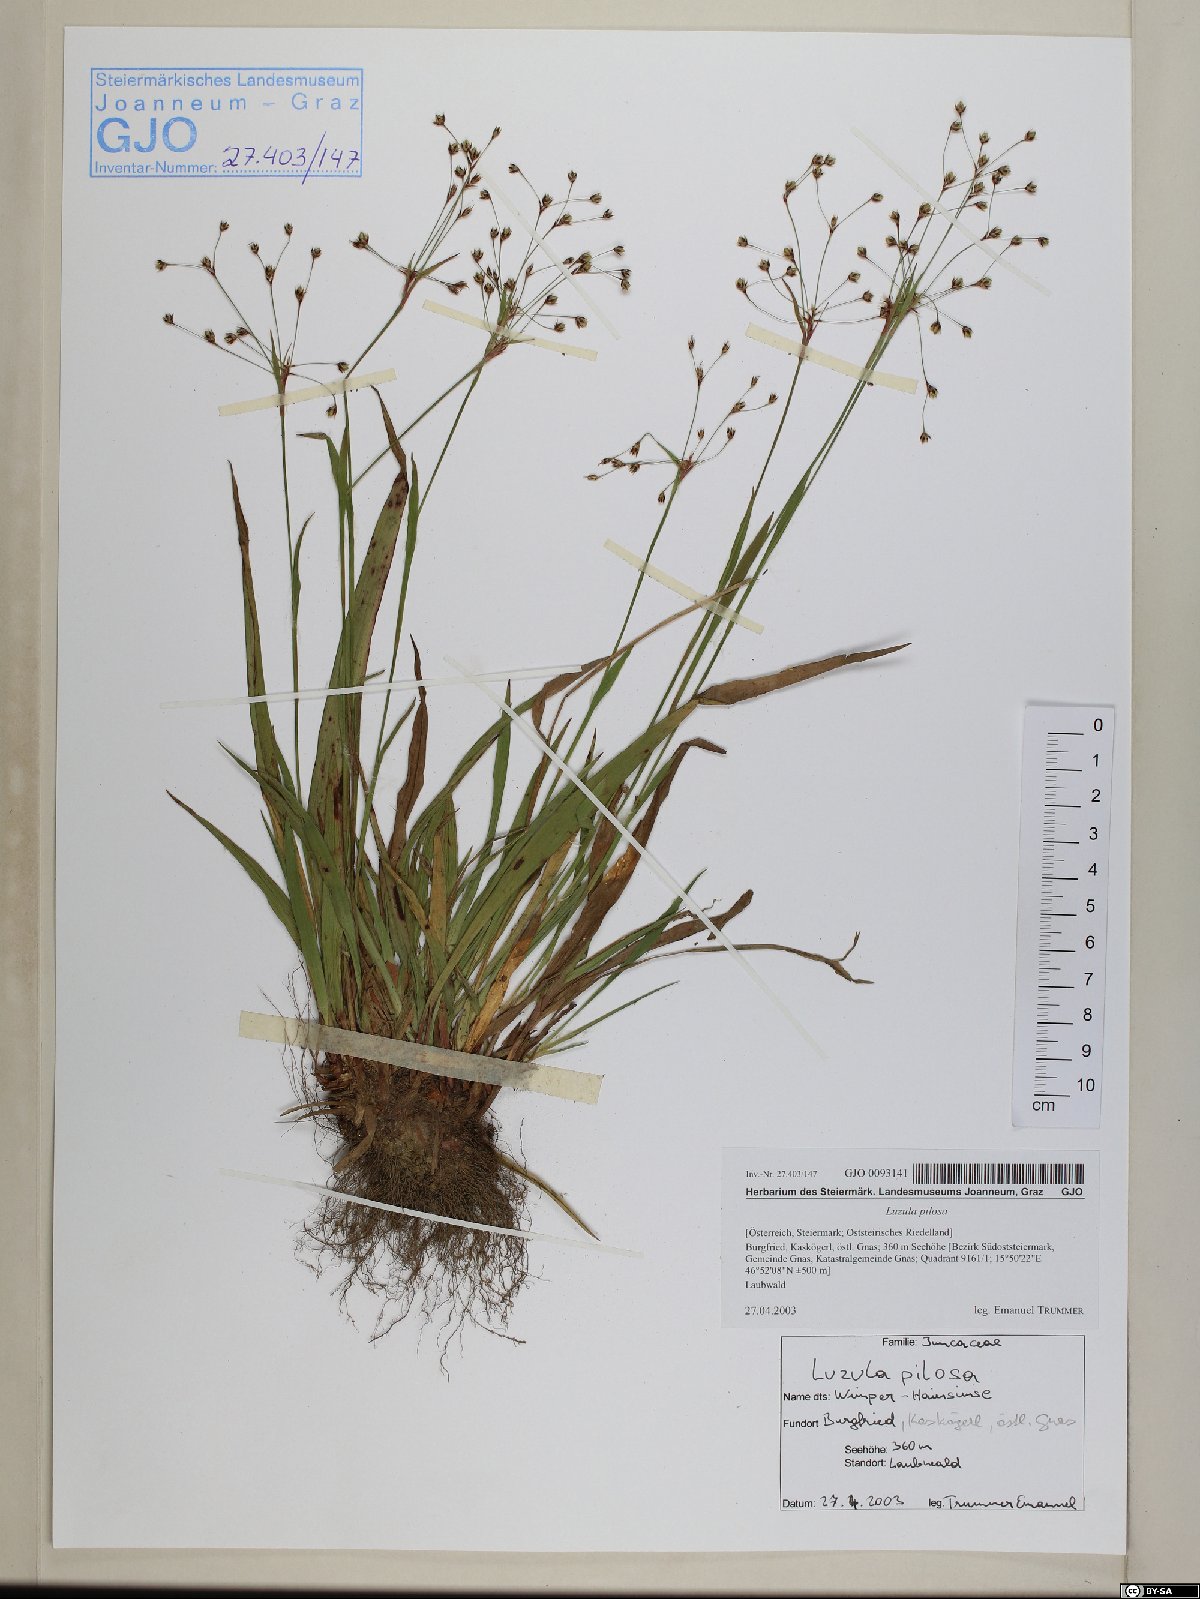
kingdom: Plantae
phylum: Tracheophyta
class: Liliopsida
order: Poales
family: Juncaceae
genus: Luzula
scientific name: Luzula pilosa
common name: Hairy wood-rush
